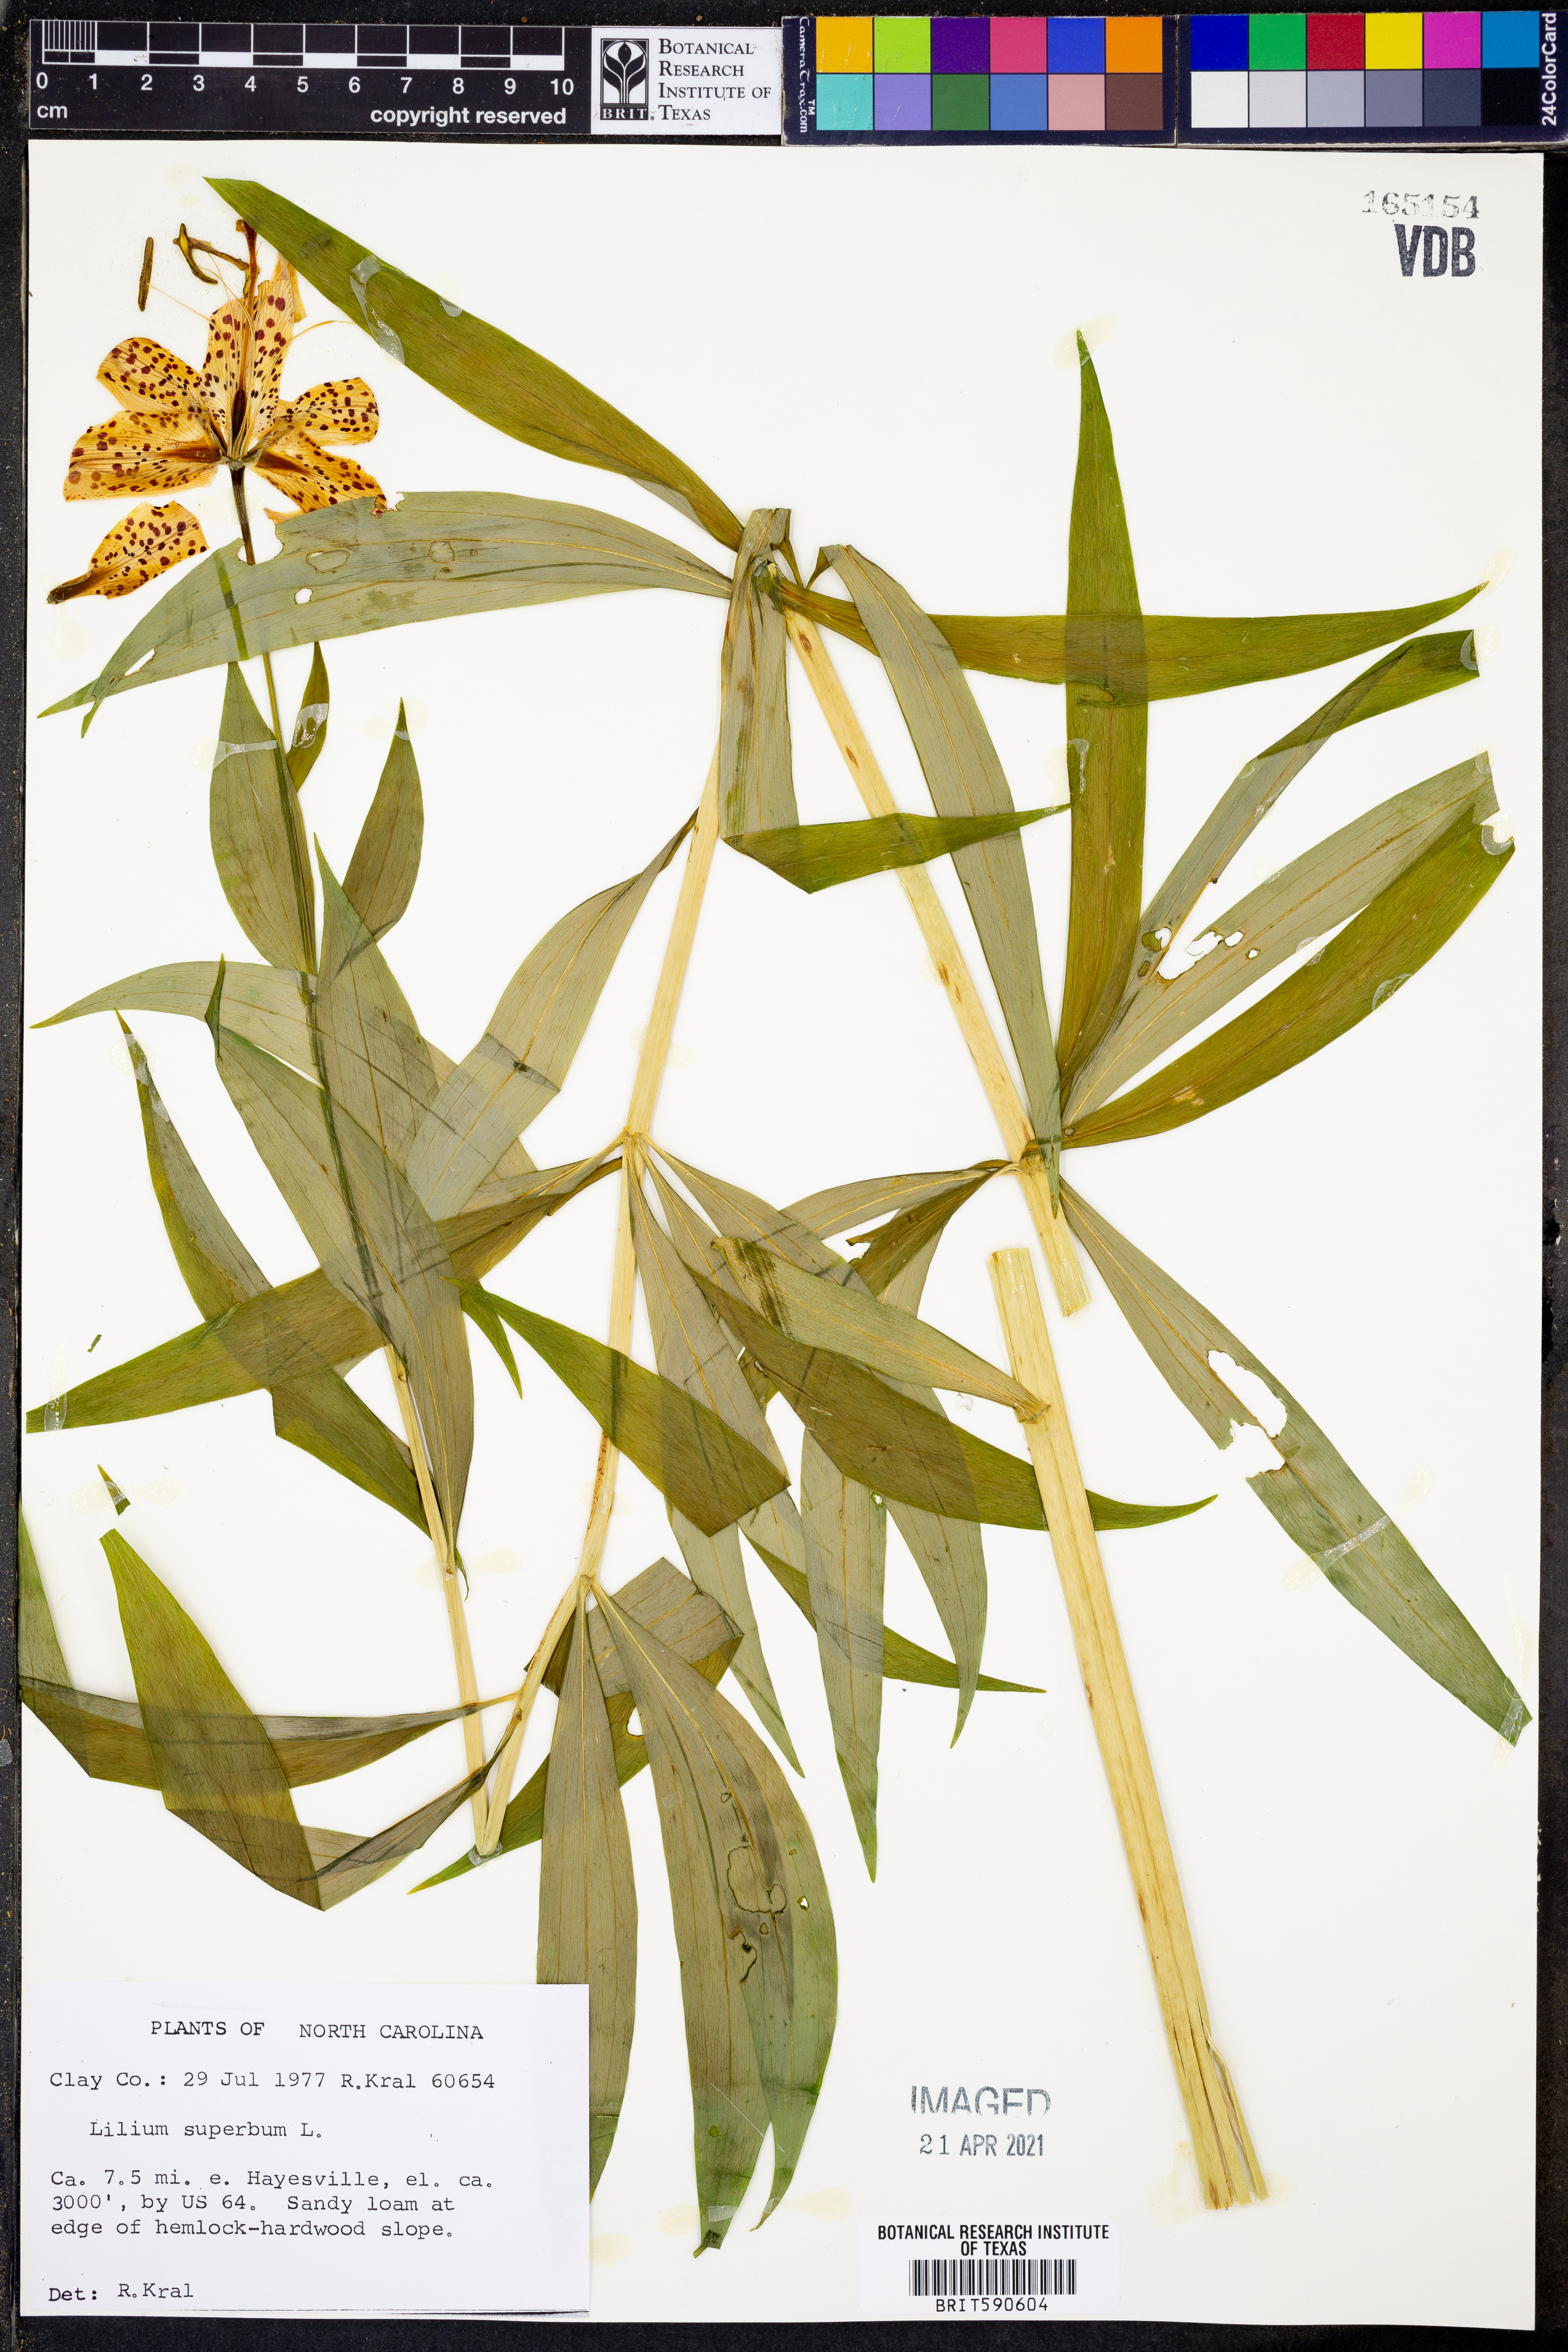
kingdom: Plantae
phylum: Tracheophyta
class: Liliopsida
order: Liliales
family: Liliaceae
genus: Lilium
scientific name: Lilium superbum
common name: American turk's-cap lily
